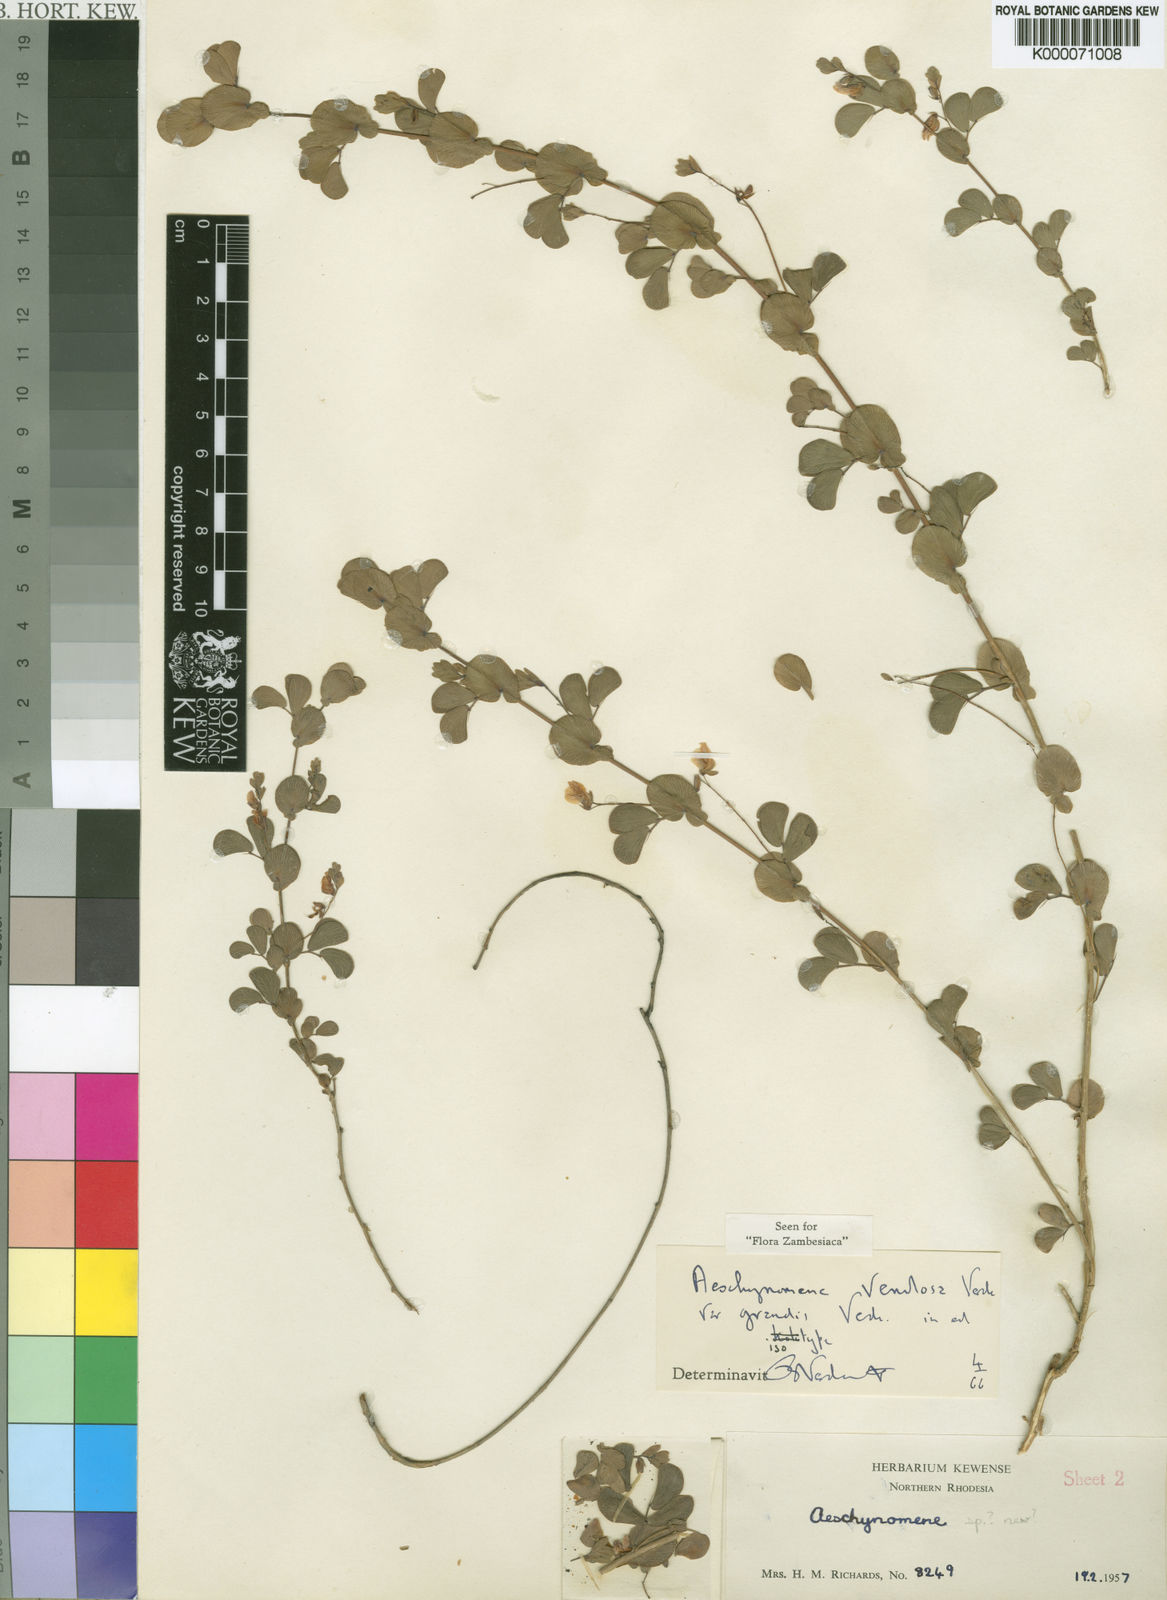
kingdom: Plantae
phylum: Tracheophyta
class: Magnoliopsida
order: Fabales
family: Fabaceae
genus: Aeschynomene
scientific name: Aeschynomene venulosa
